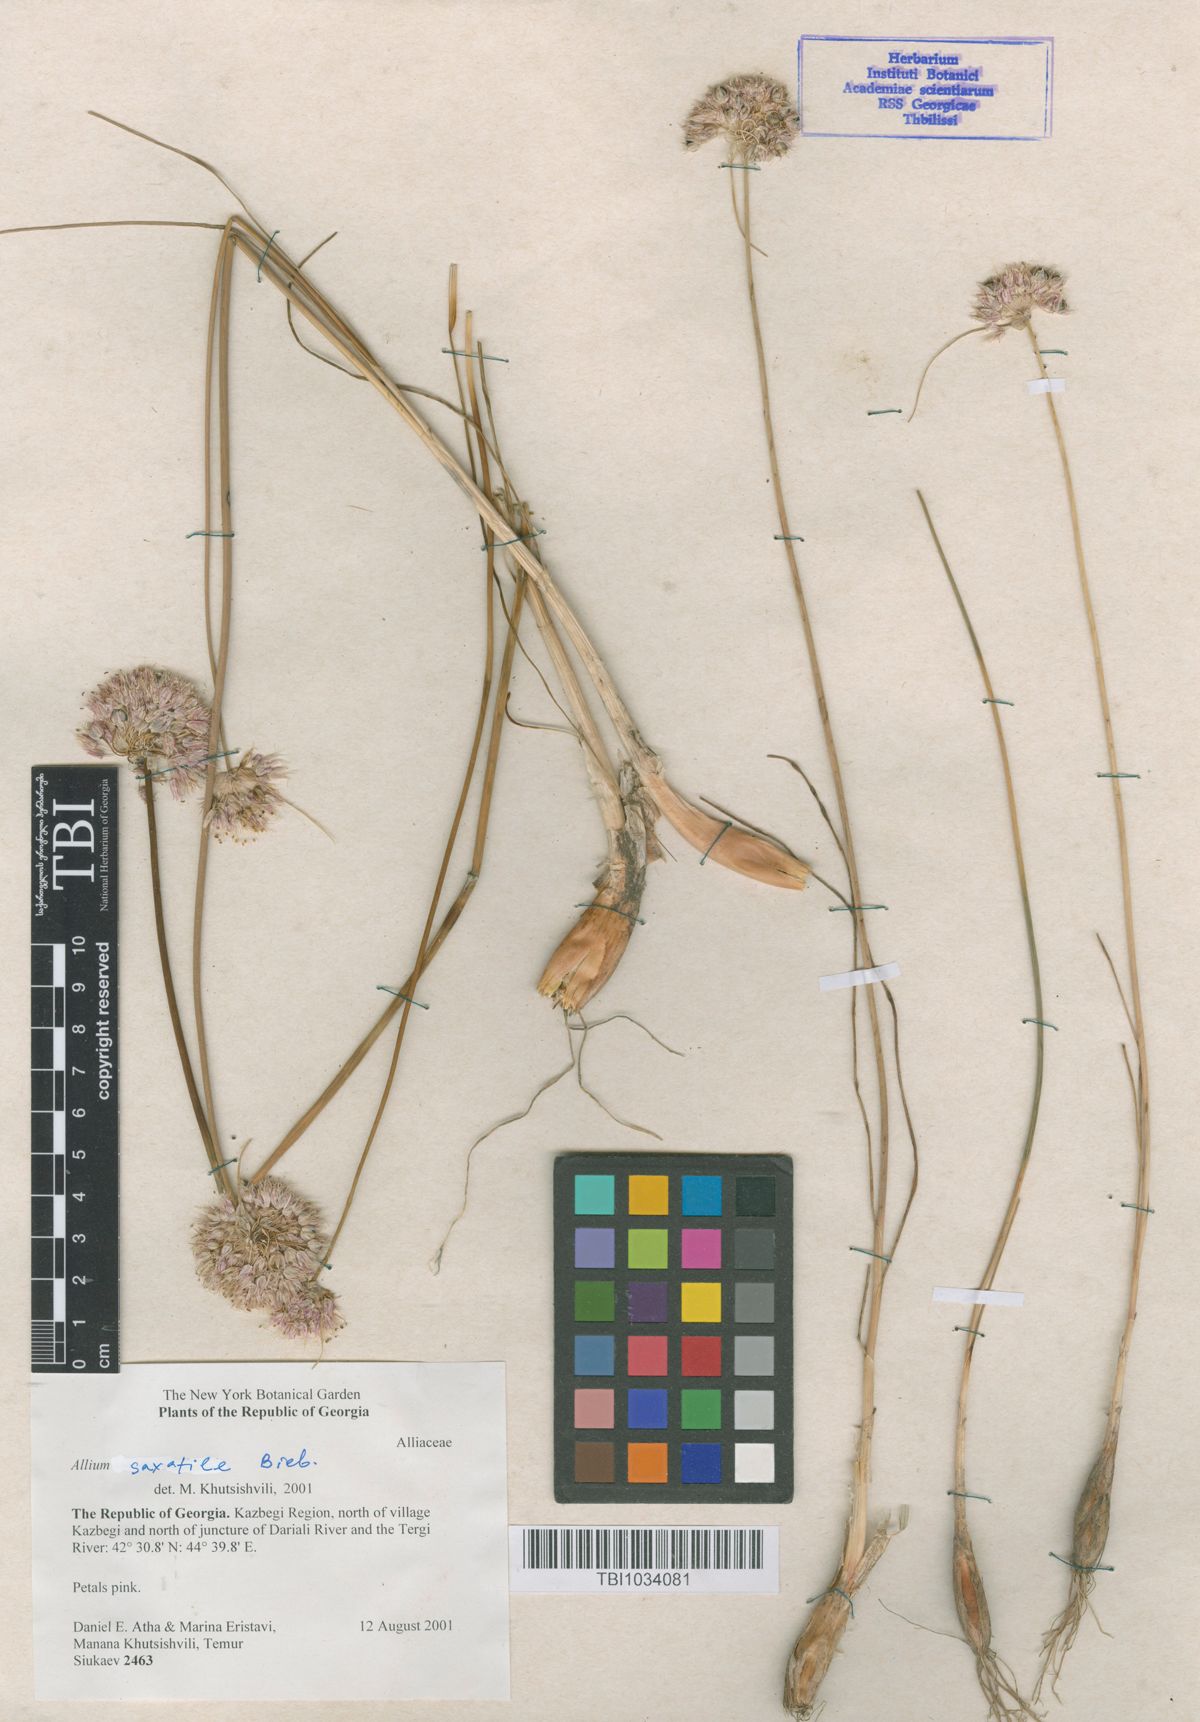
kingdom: Plantae
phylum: Tracheophyta
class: Liliopsida
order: Asparagales
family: Amaryllidaceae
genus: Allium
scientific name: Allium saxatile
